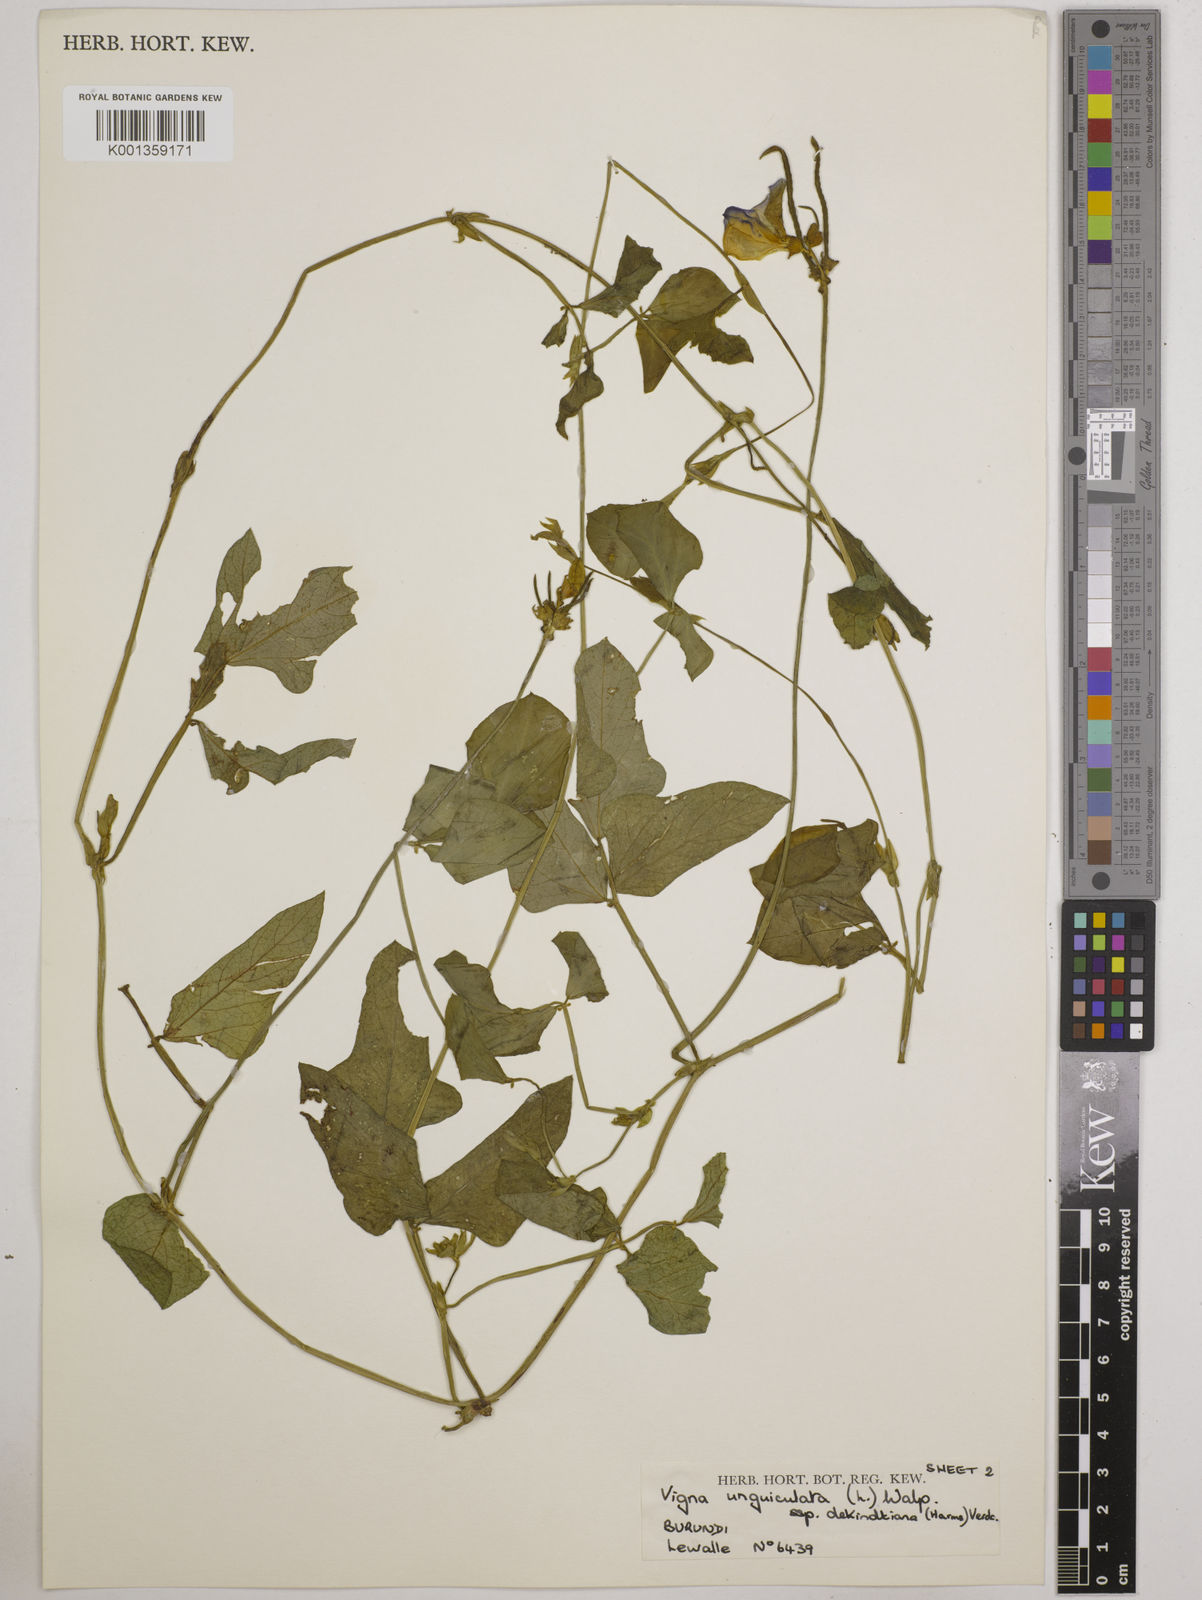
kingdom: Plantae
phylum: Tracheophyta
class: Magnoliopsida
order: Fabales
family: Fabaceae
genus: Vigna
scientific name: Vigna
